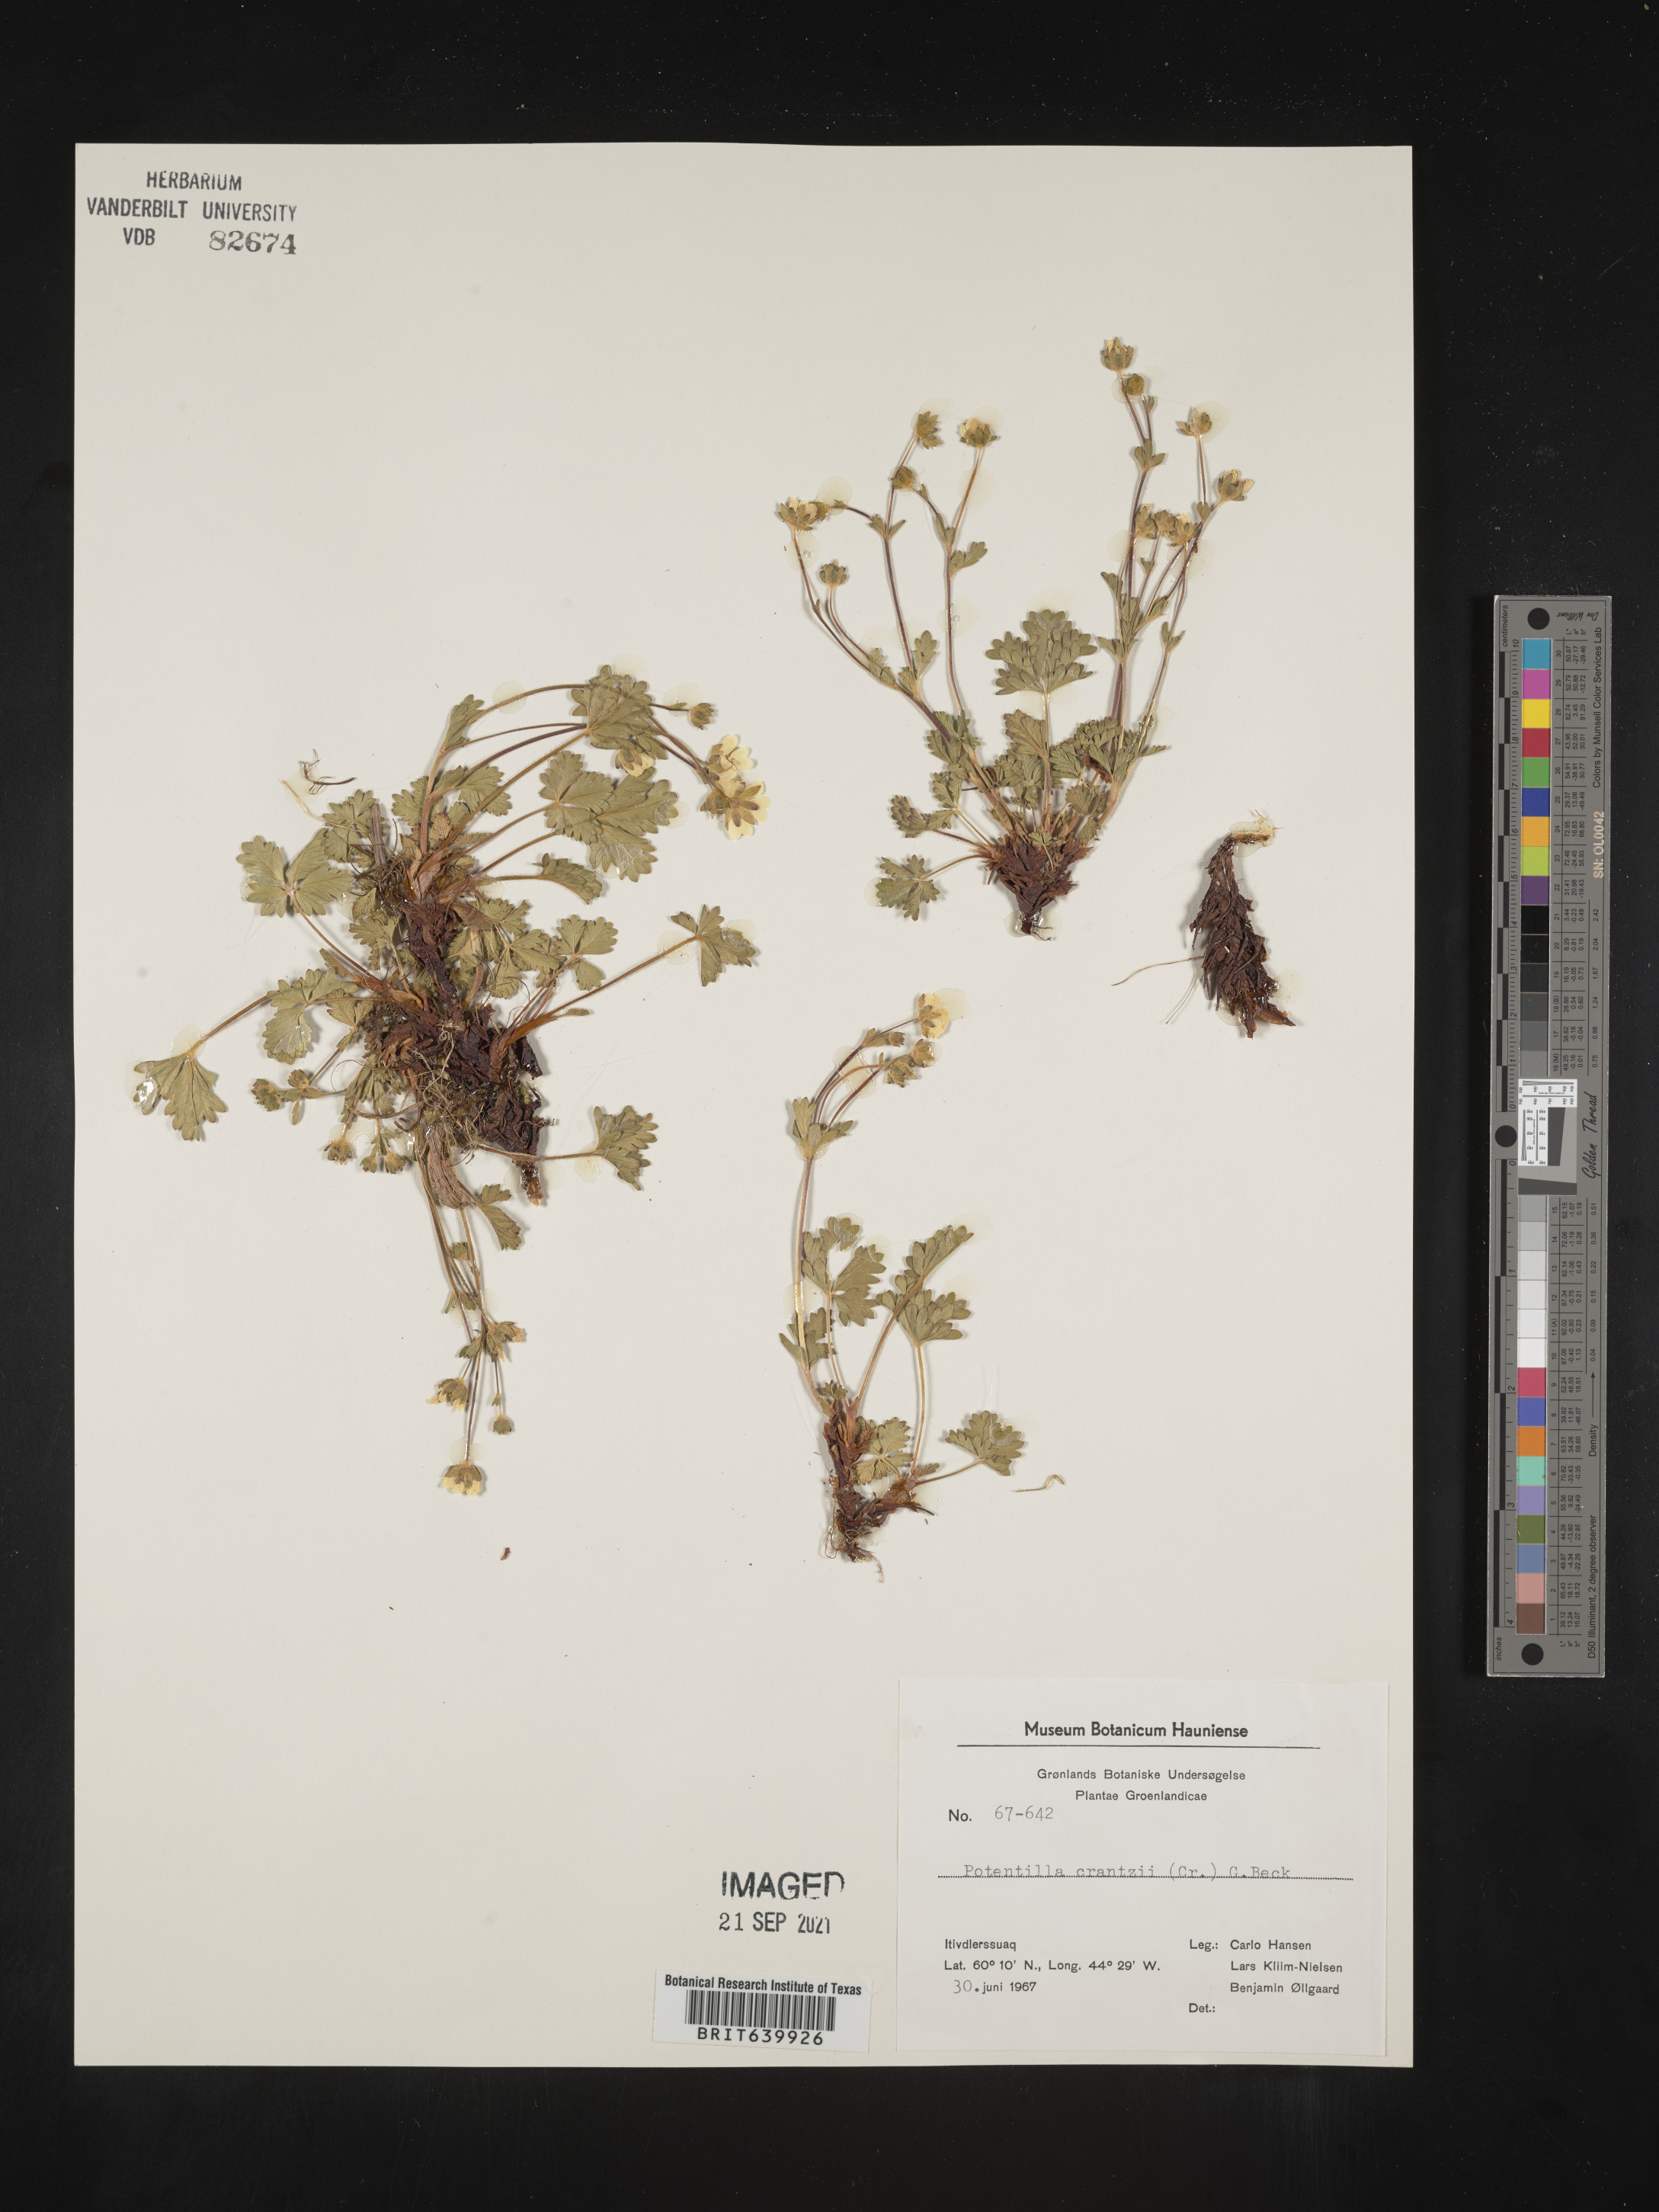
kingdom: Plantae
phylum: Tracheophyta
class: Magnoliopsida
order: Rosales
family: Rosaceae
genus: Potentilla
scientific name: Potentilla
